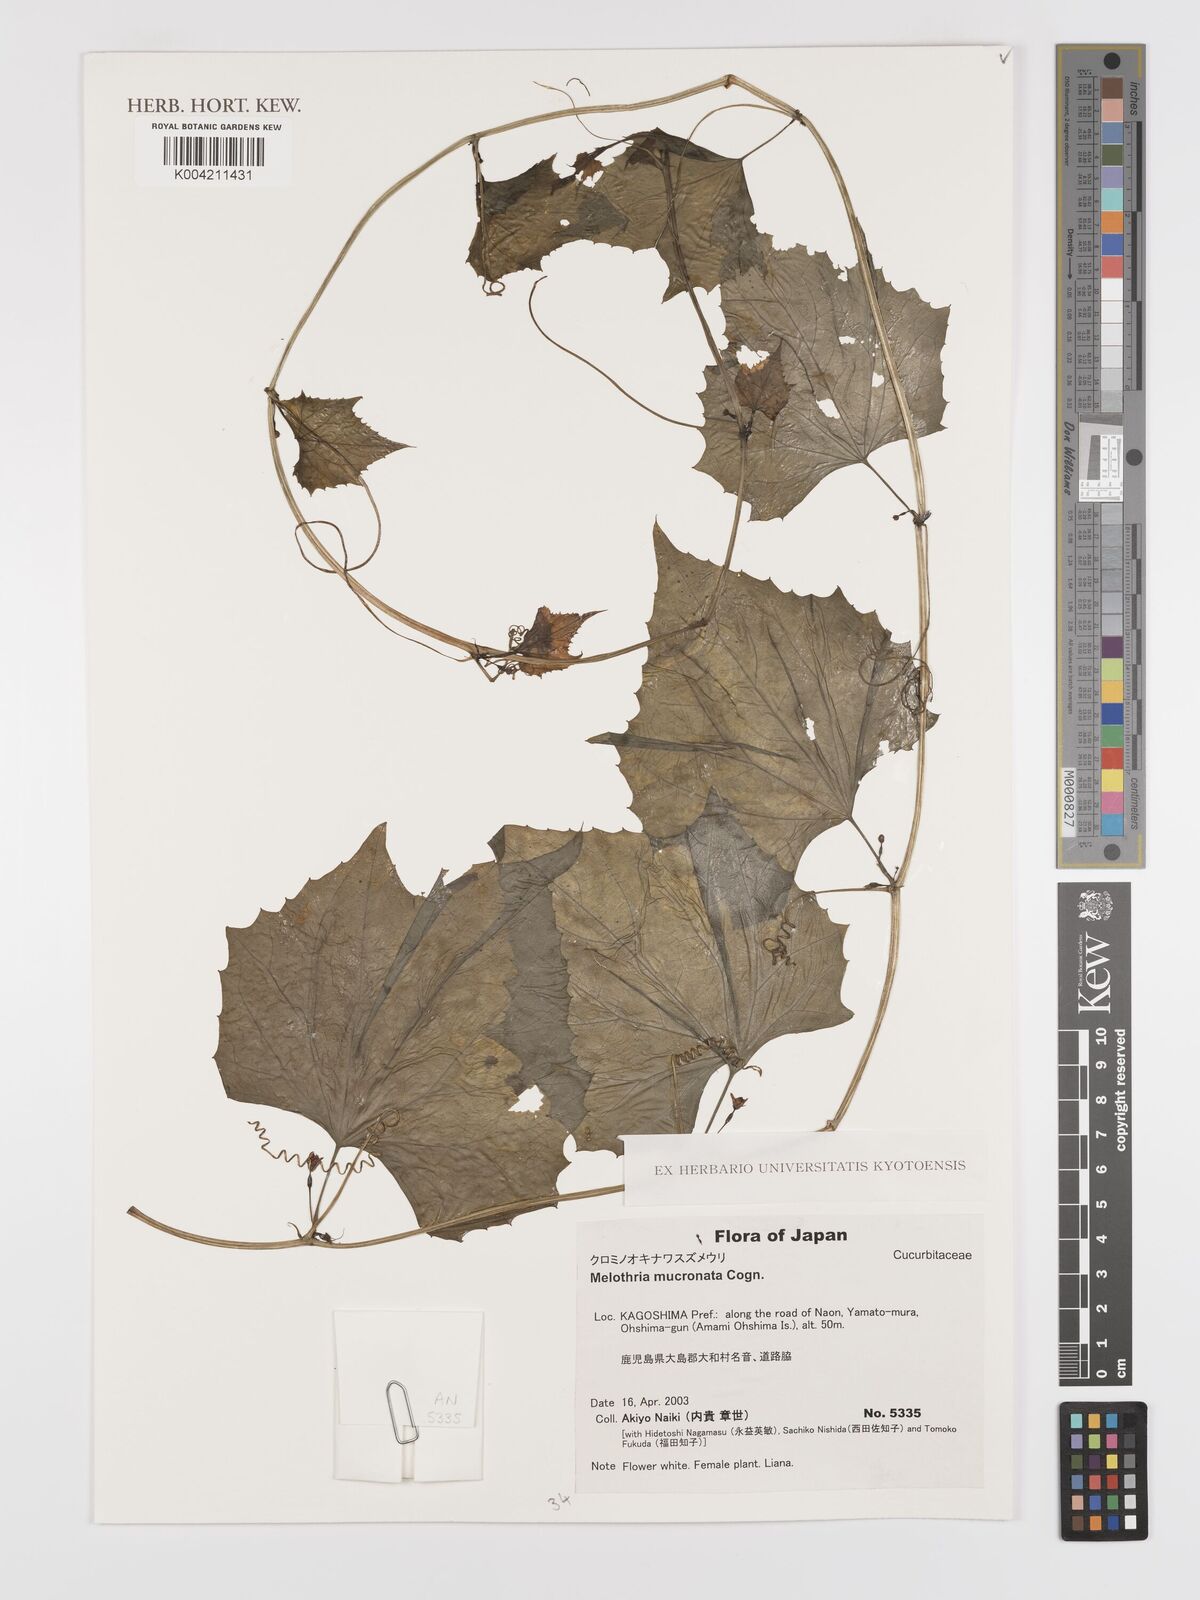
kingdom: Plantae
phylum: Tracheophyta
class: Magnoliopsida
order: Cucurbitales
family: Cucurbitaceae
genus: Zehneria
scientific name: Zehneria mucronata
